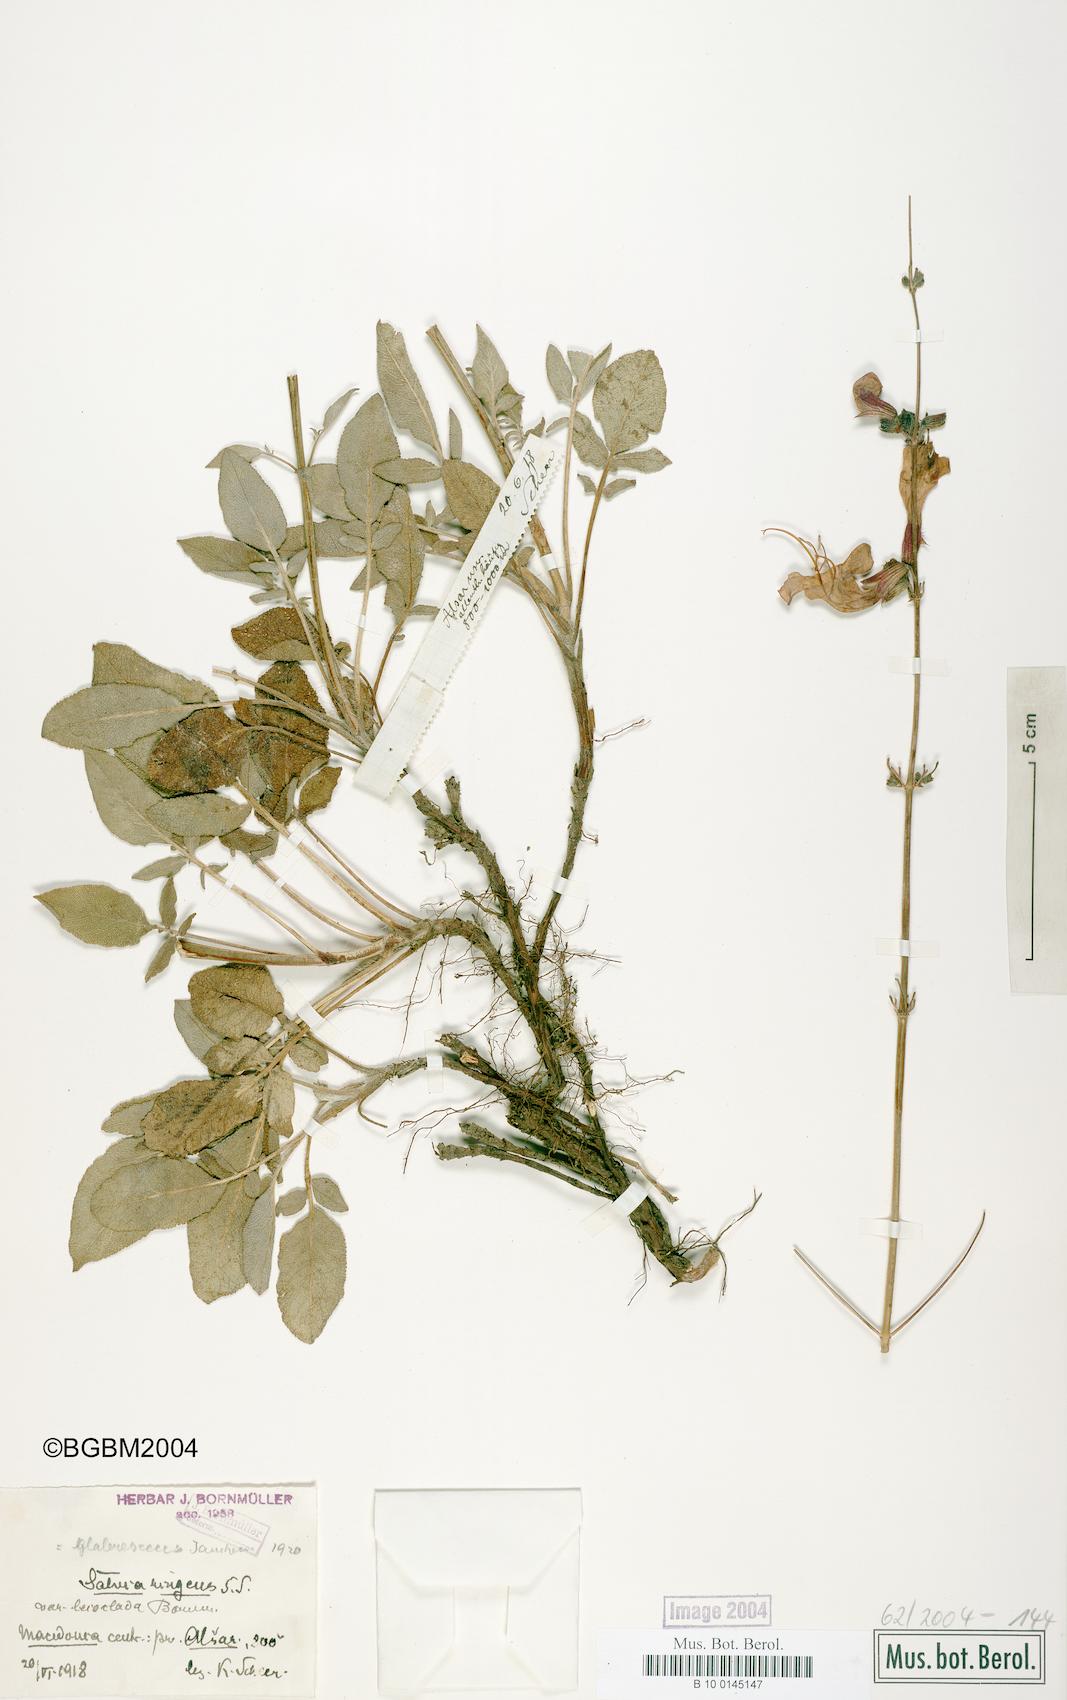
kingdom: Plantae
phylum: Tracheophyta
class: Magnoliopsida
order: Lamiales
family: Lamiaceae
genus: Salvia
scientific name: Salvia ringens
